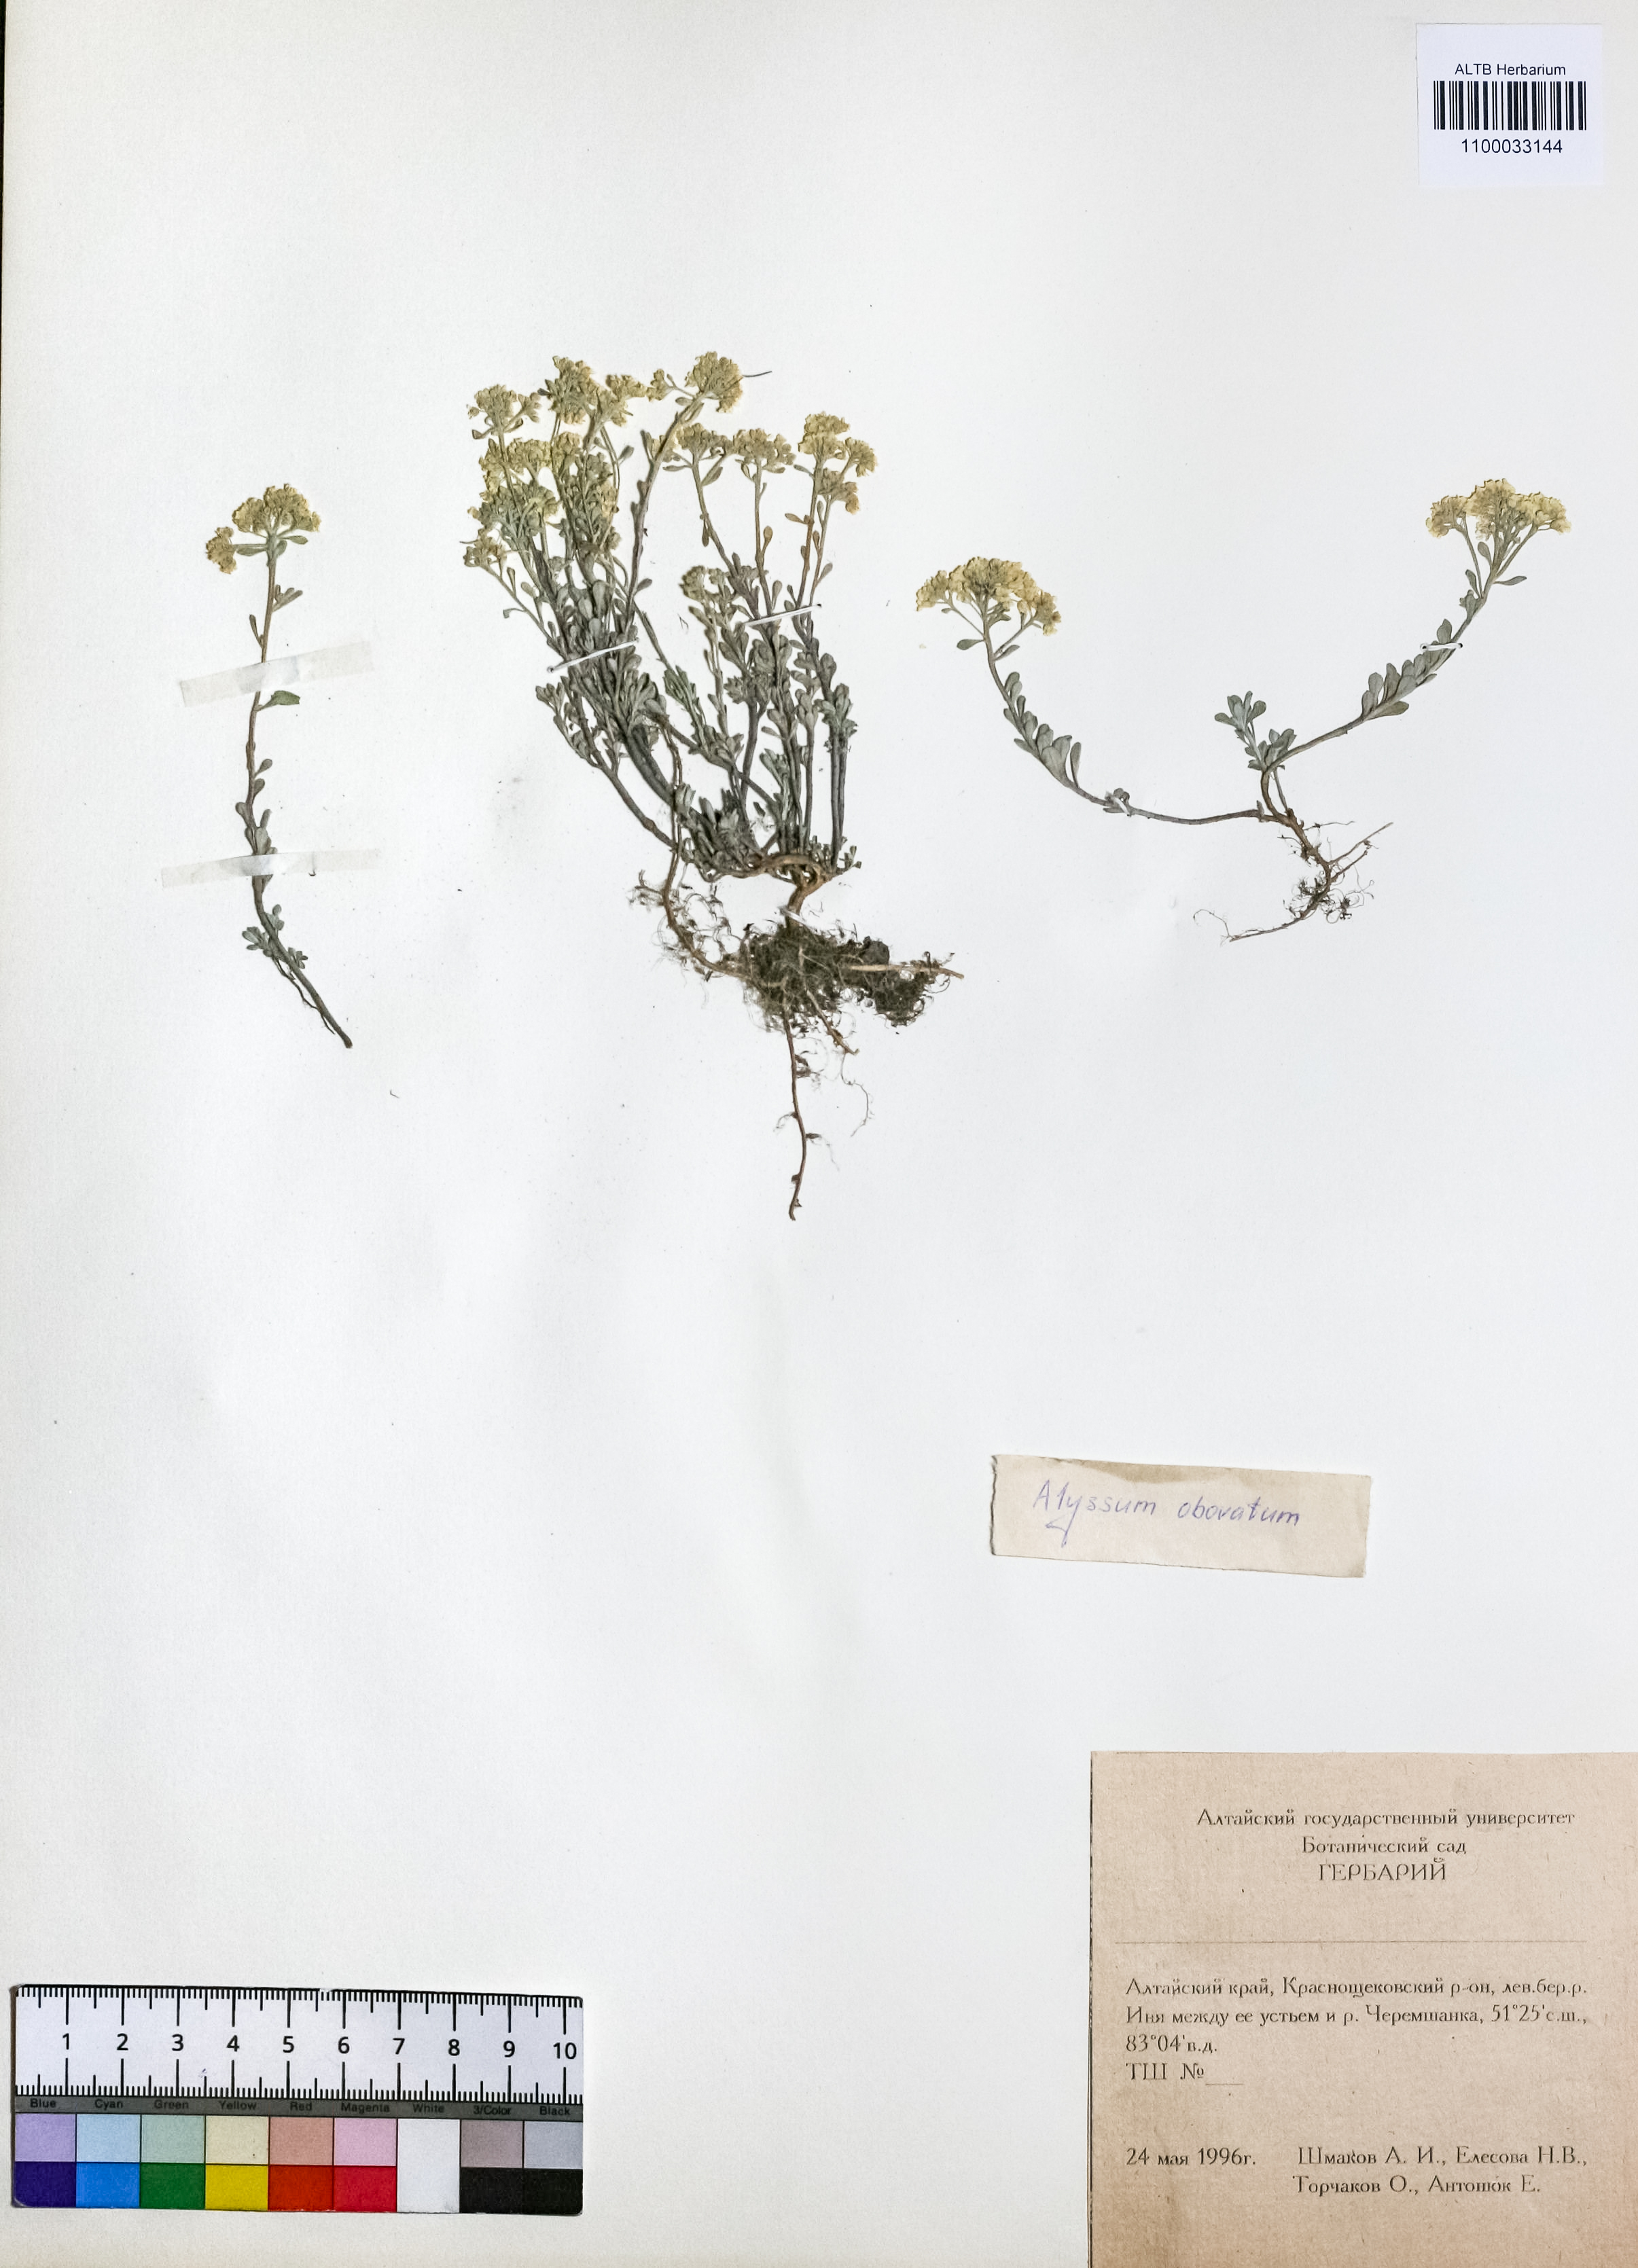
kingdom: Plantae
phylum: Tracheophyta
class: Magnoliopsida
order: Brassicales
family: Brassicaceae
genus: Odontarrhena
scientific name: Odontarrhena obovata
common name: American alyssum
